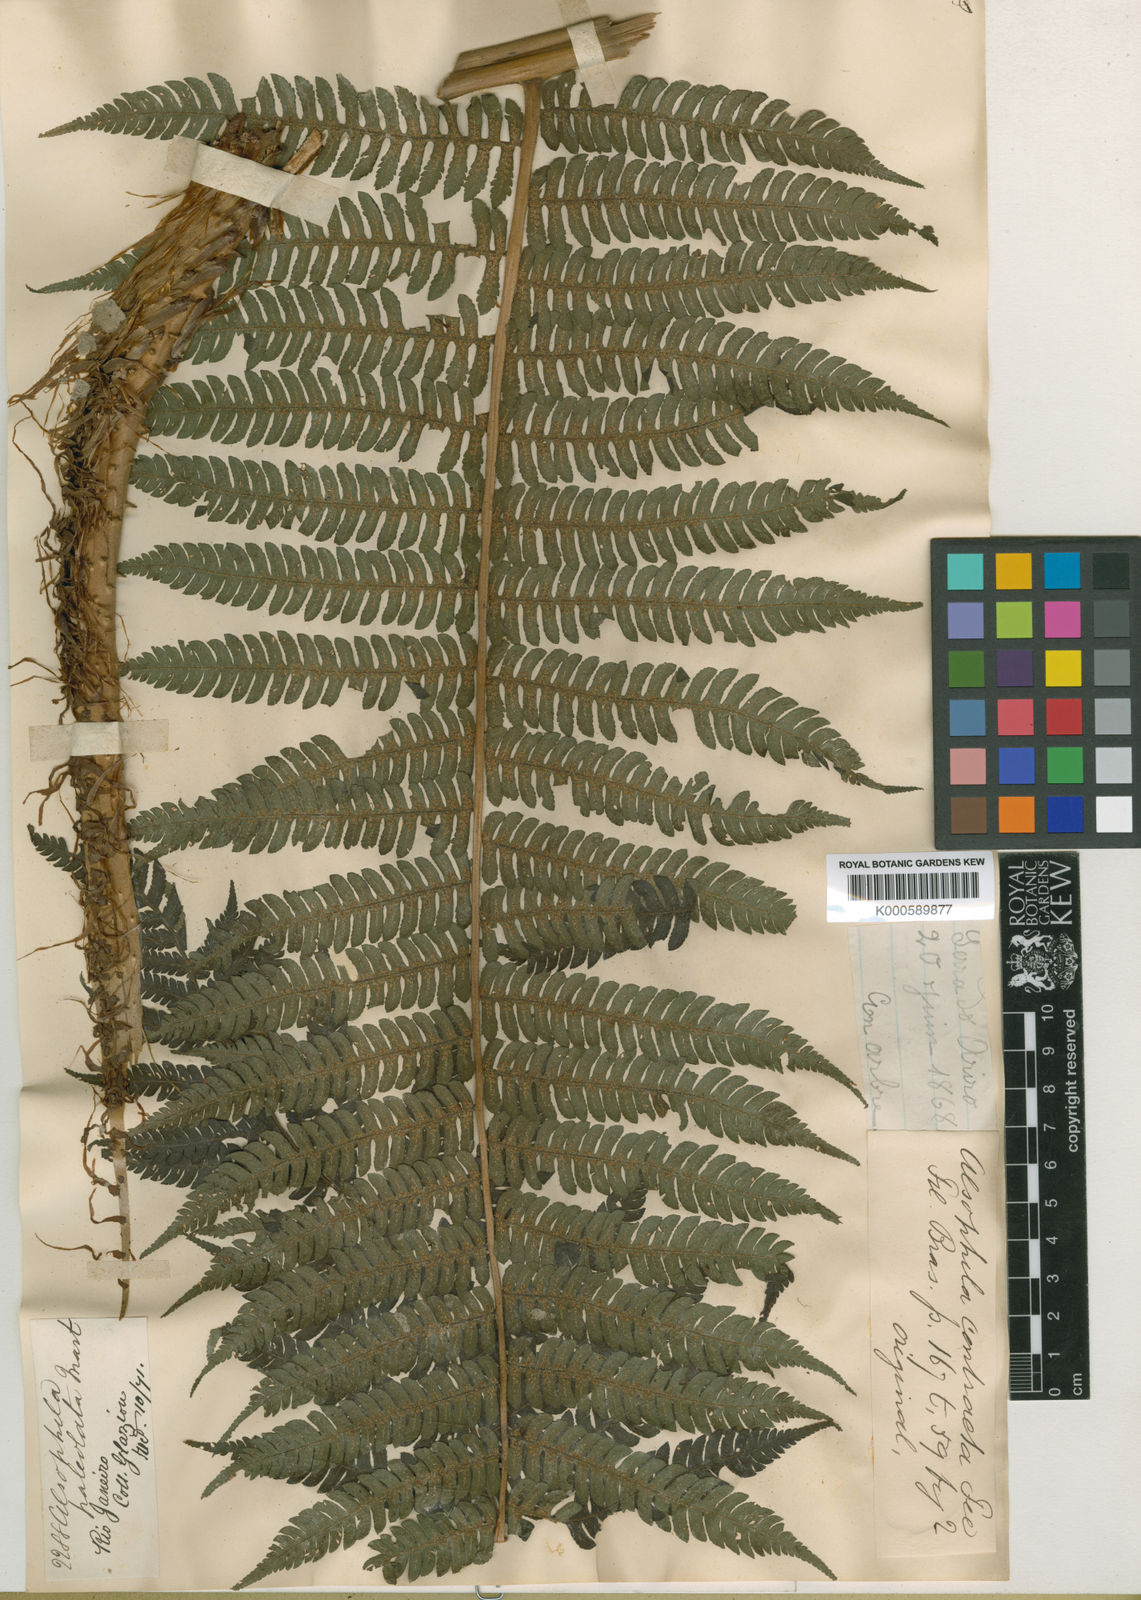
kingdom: Plantae
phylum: Tracheophyta
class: Polypodiopsida
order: Cyatheales
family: Cyatheaceae
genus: Cyathea
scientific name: Cyathea phalerata
